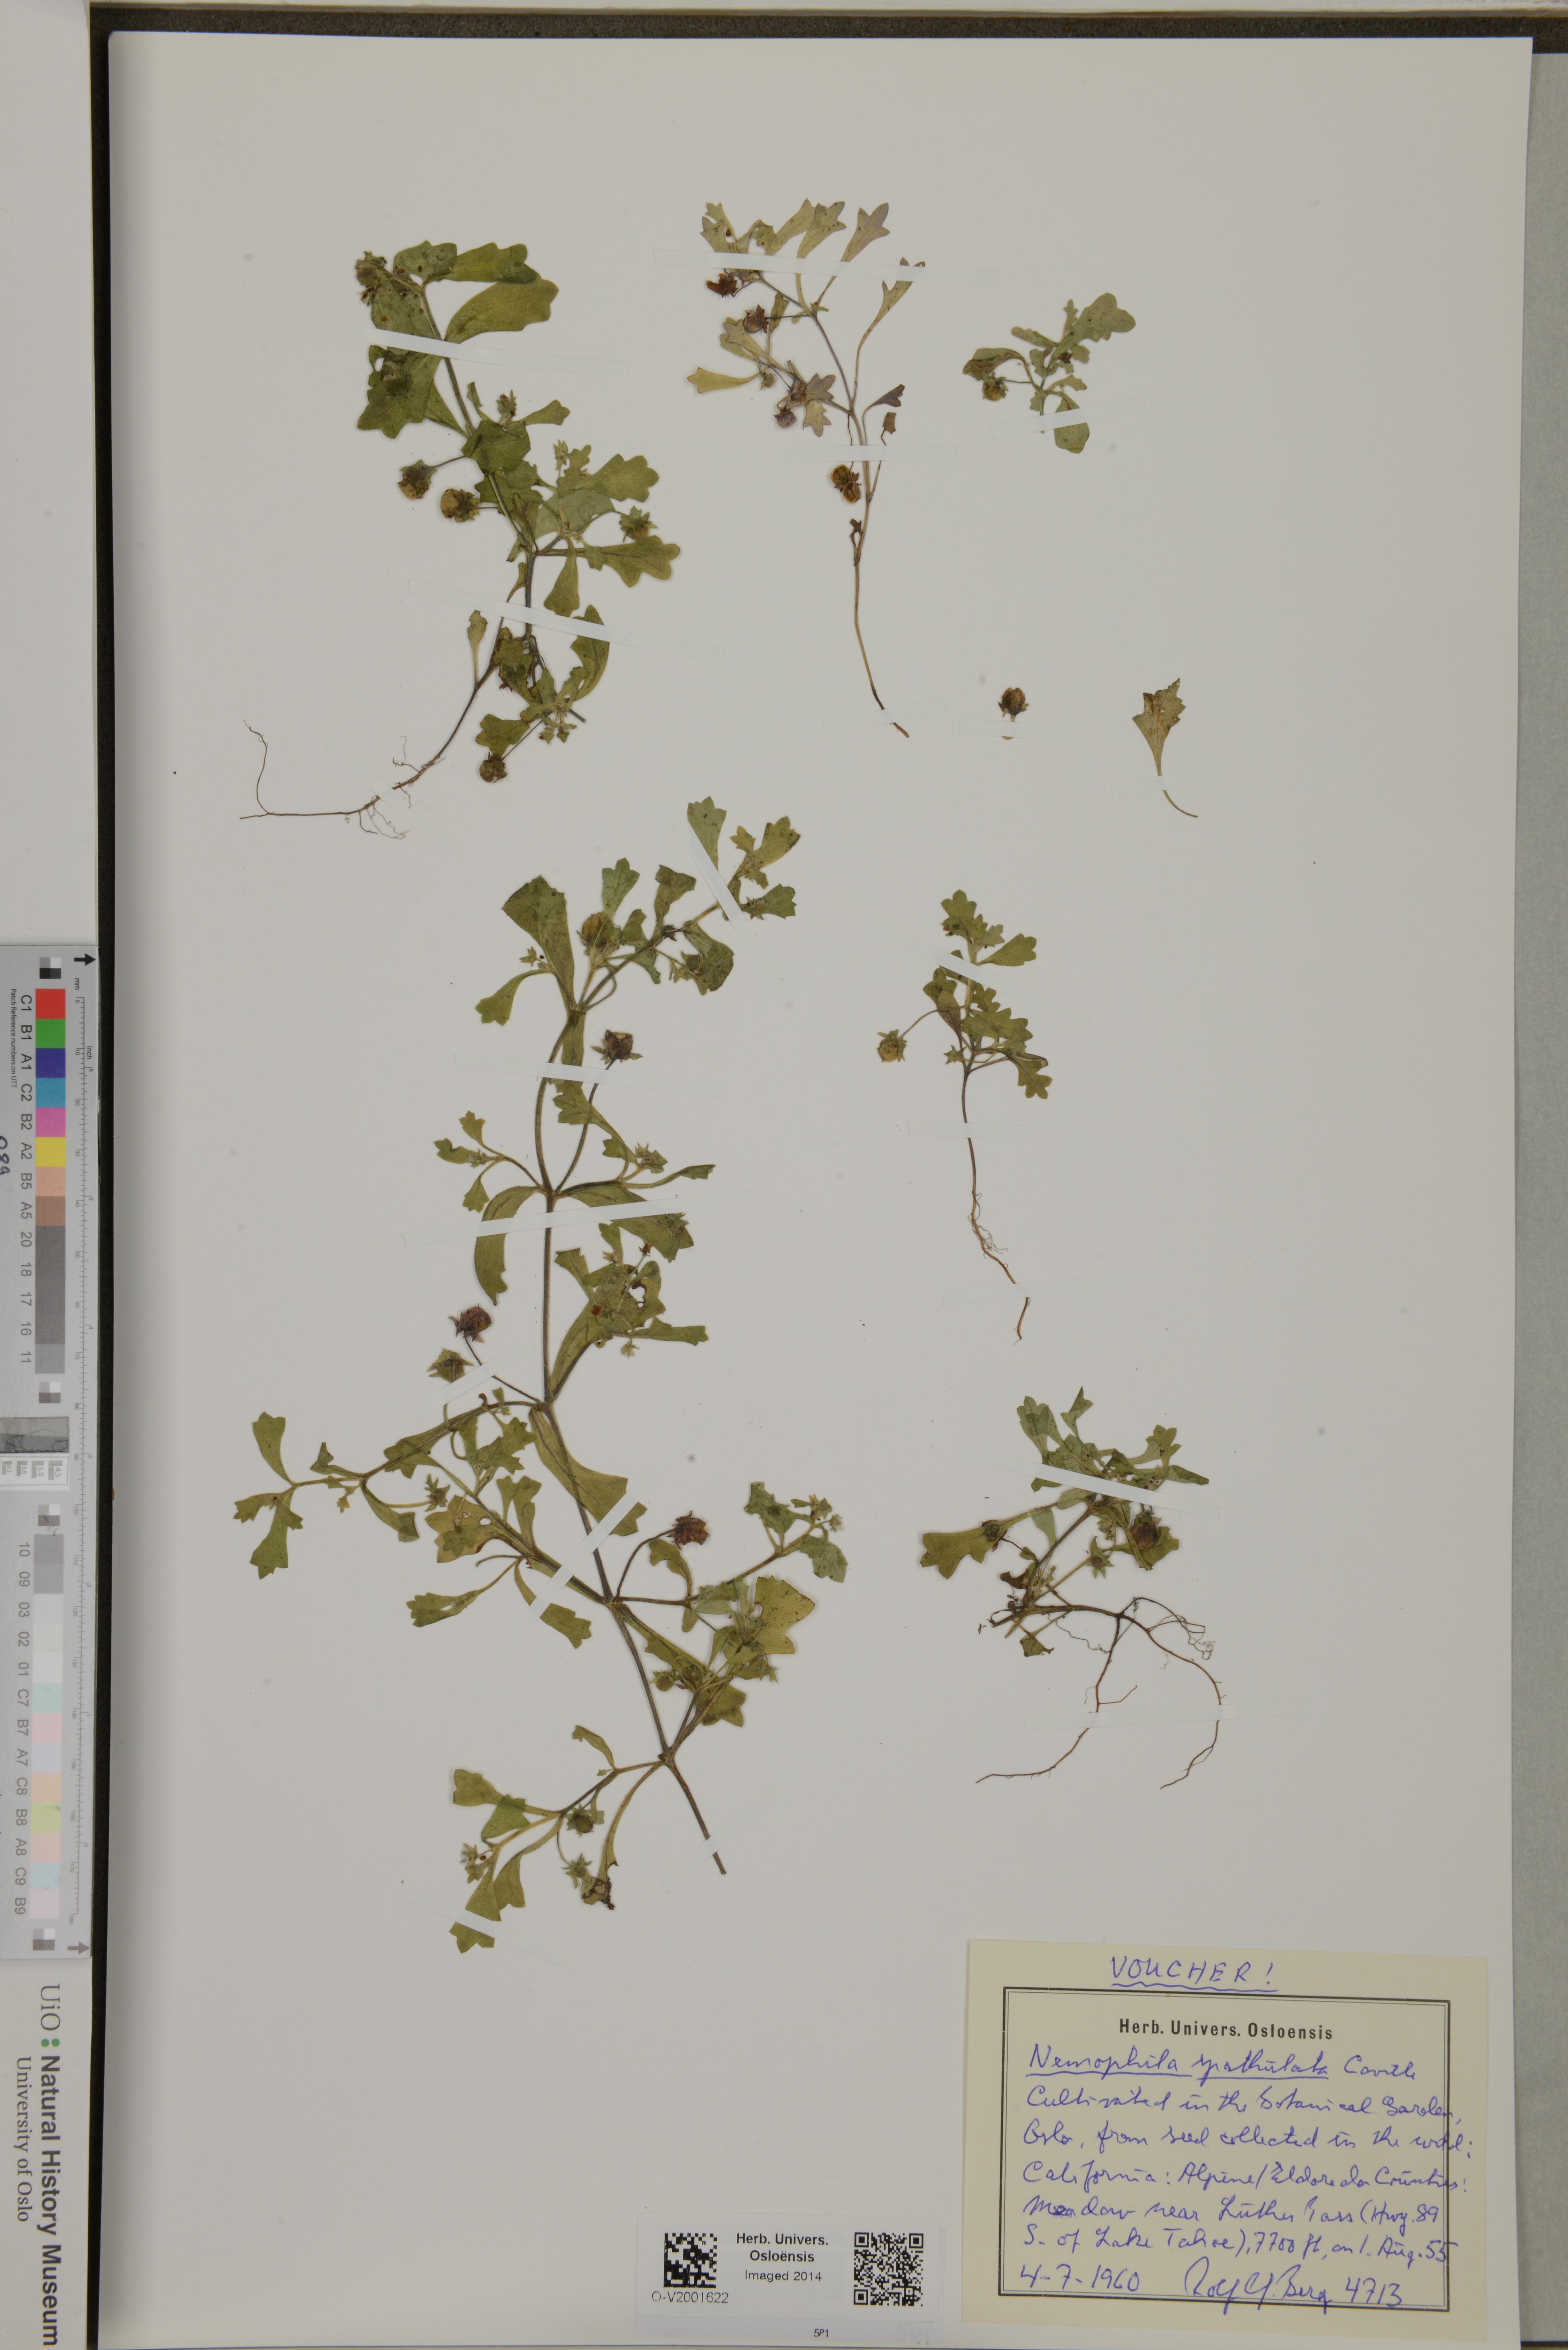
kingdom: Plantae
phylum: Tracheophyta
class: Magnoliopsida
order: Boraginales
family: Hydrophyllaceae
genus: Nemophila
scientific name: Nemophila spatulata
